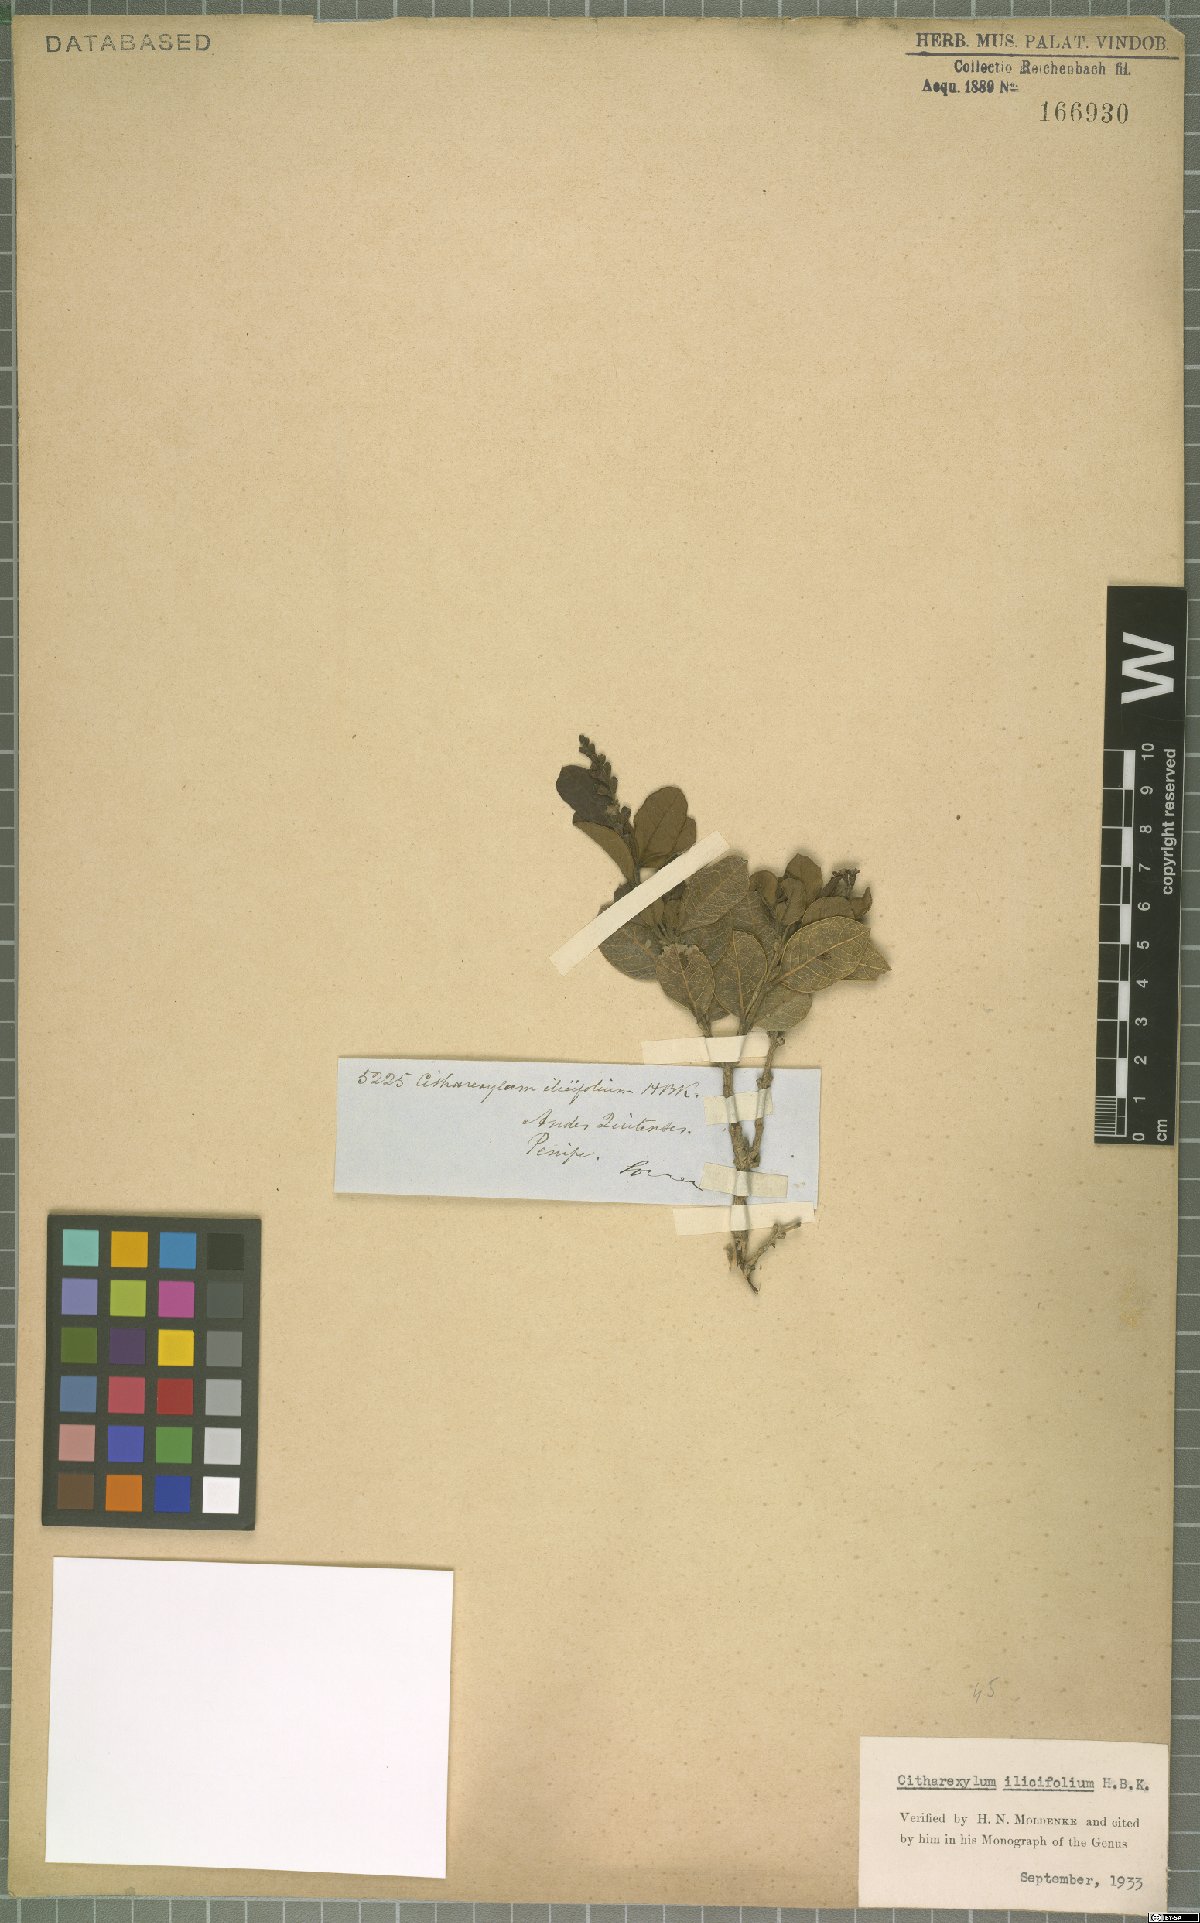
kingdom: Plantae
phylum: Tracheophyta
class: Magnoliopsida
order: Lamiales
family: Verbenaceae
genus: Citharexylum
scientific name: Citharexylum ilicifolium
